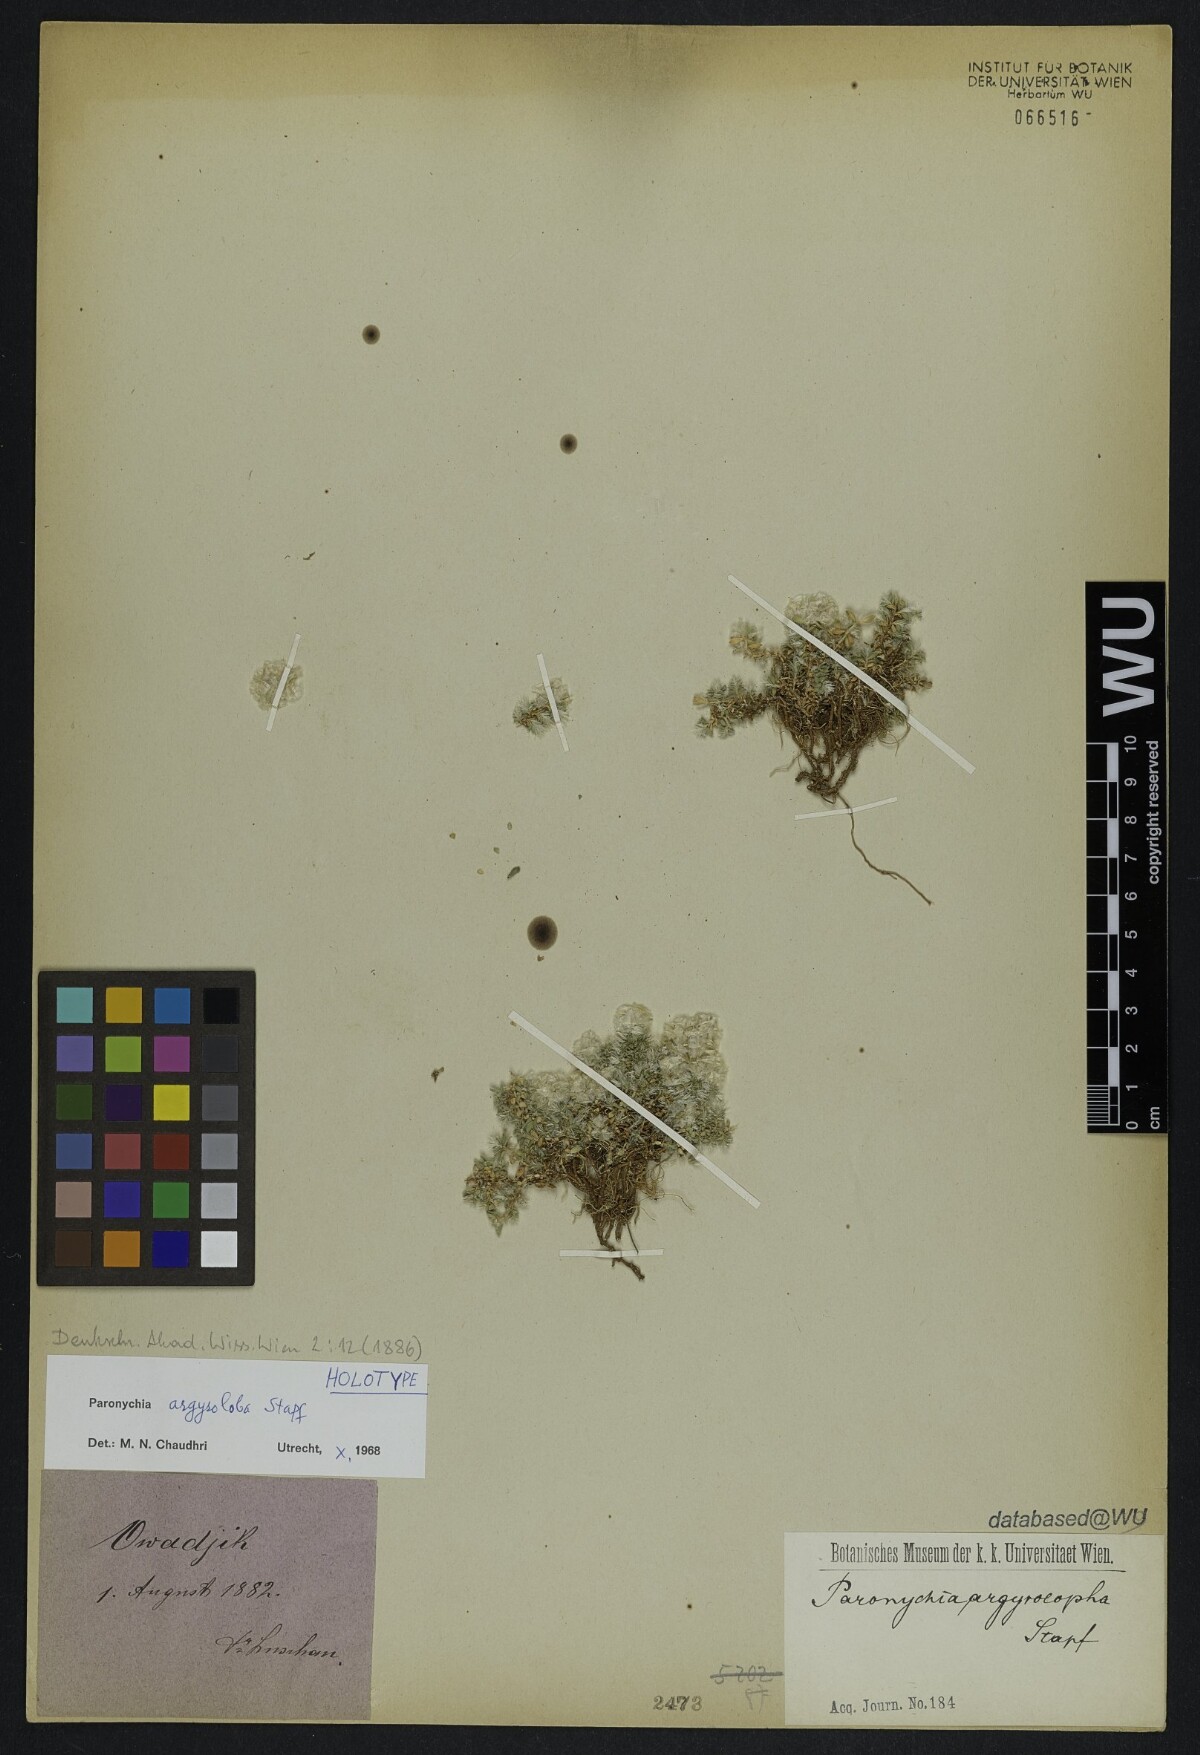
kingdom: Plantae
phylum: Tracheophyta
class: Magnoliopsida
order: Caryophyllales
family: Caryophyllaceae
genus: Paronychia
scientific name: Paronychia argyroloba
